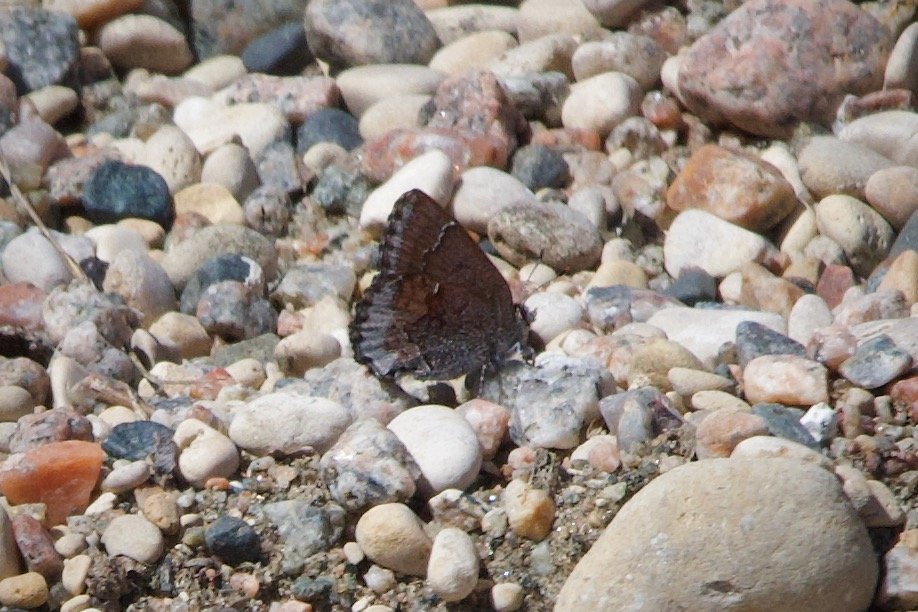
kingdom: Animalia
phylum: Arthropoda
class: Insecta
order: Lepidoptera
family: Lycaenidae
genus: Callophrys
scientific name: Callophrys polios
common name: Hoary Elfin
